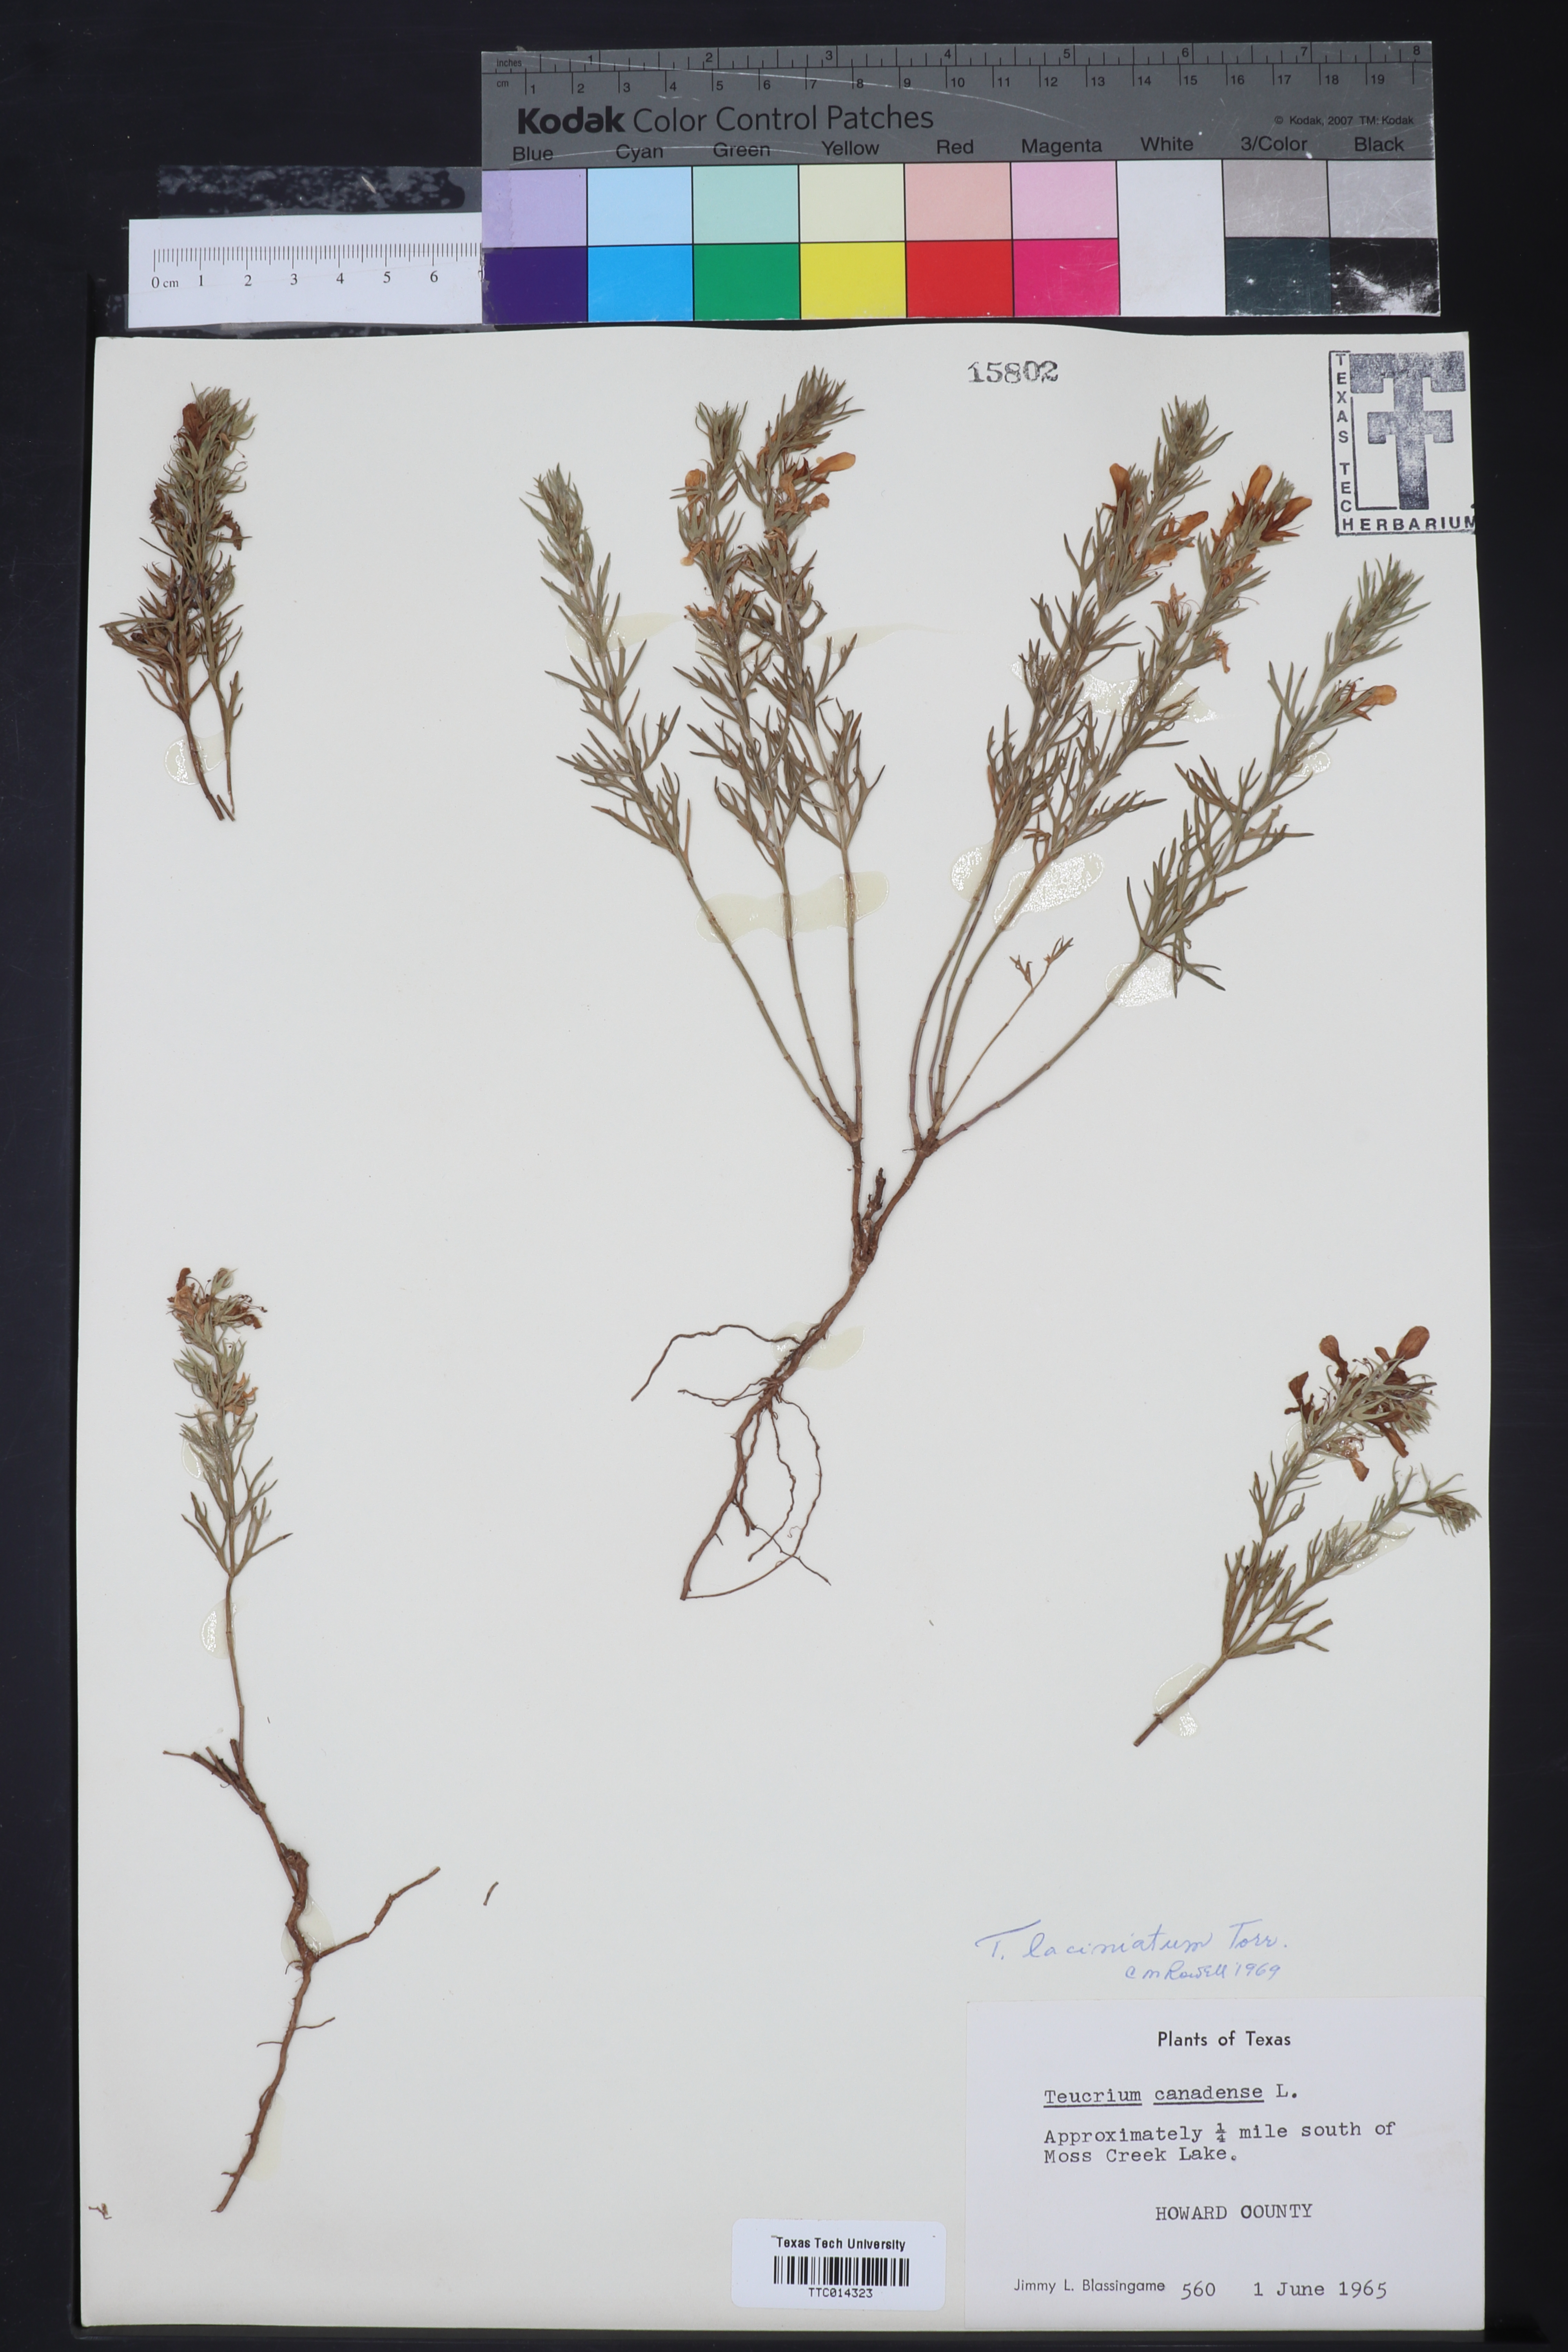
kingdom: Plantae
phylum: Tracheophyta
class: Magnoliopsida
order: Lamiales
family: Lamiaceae
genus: Teucrium
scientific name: Teucrium laciniatum
